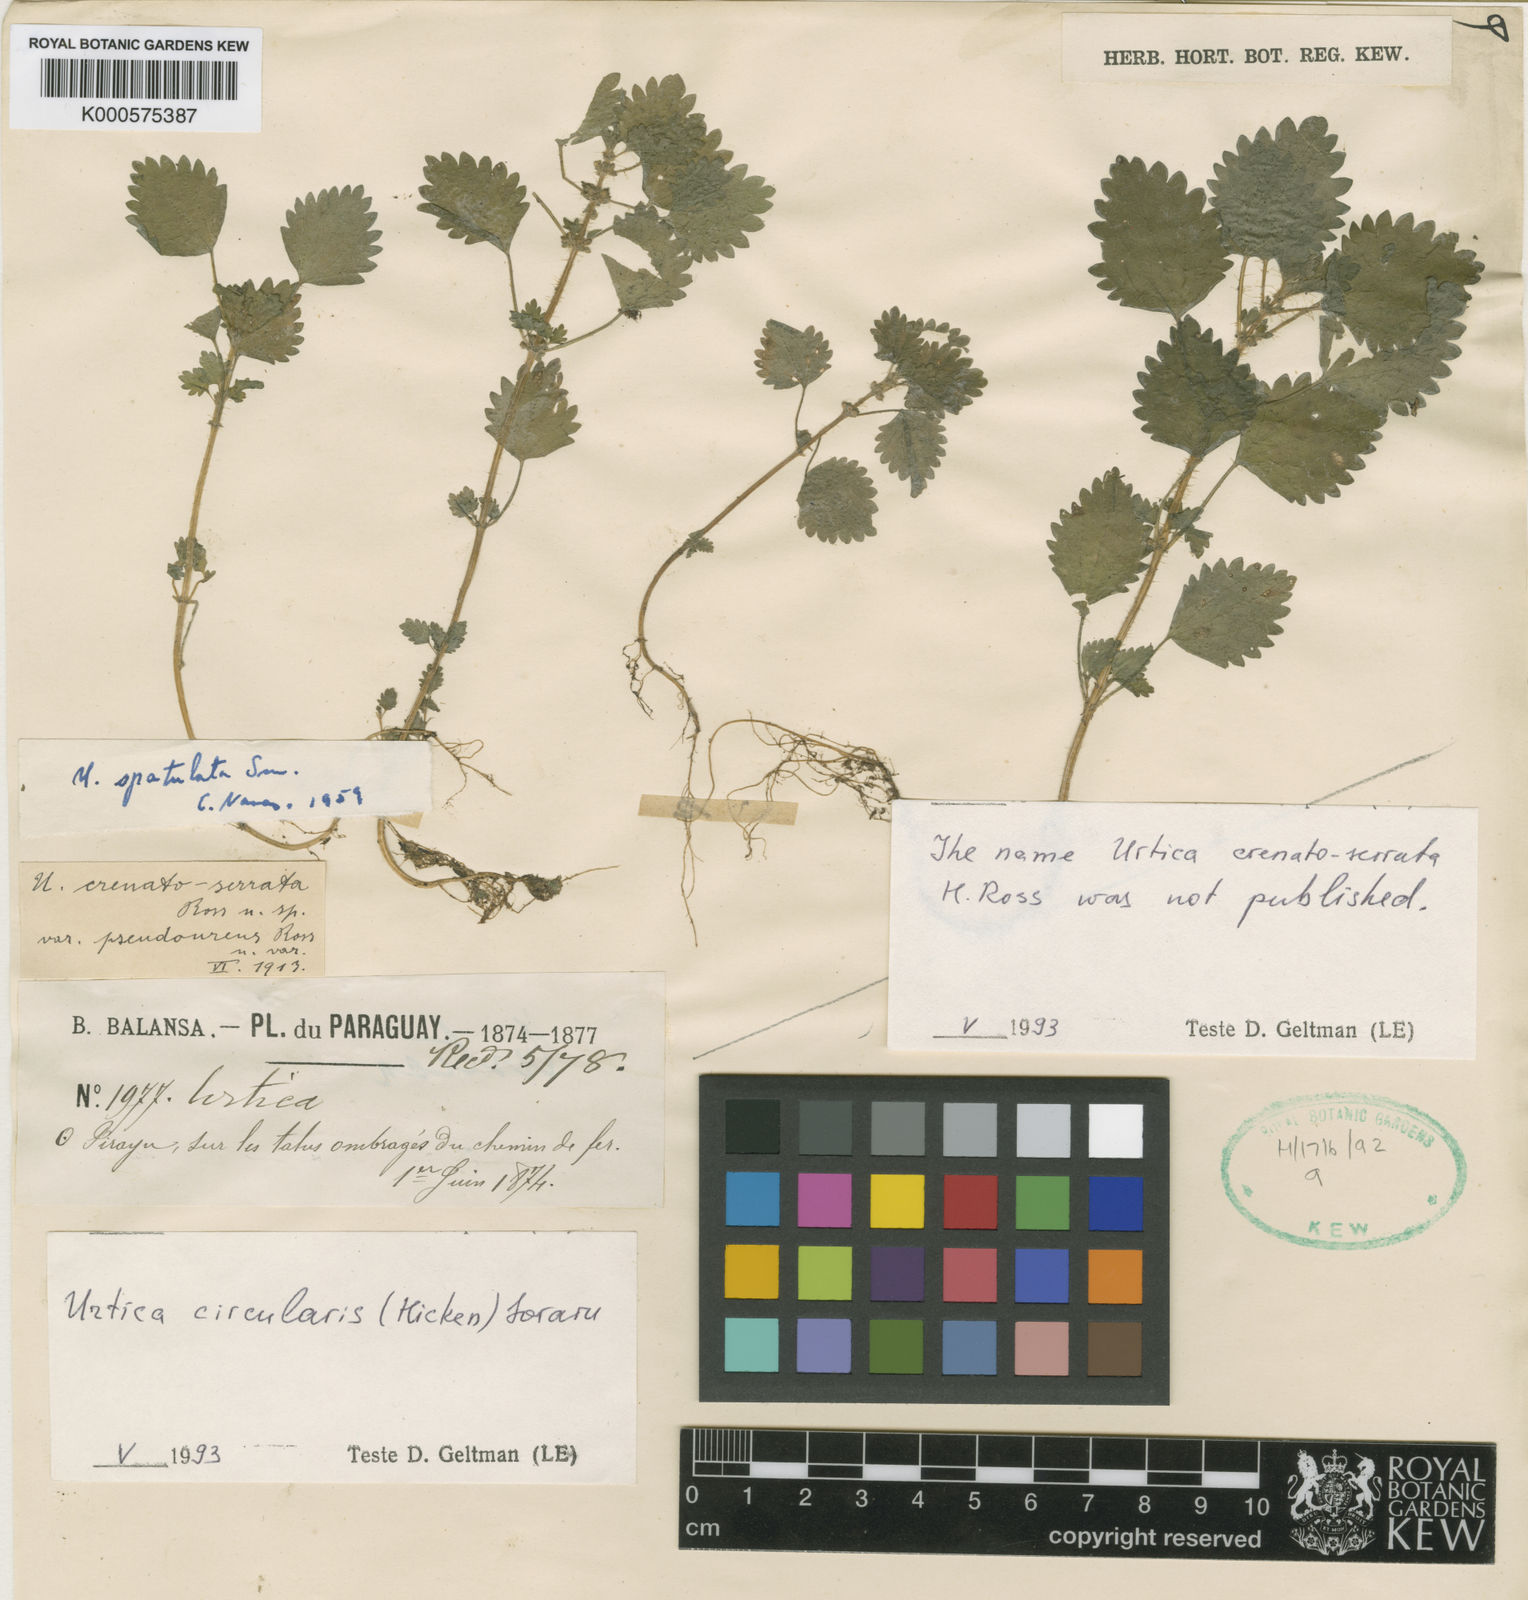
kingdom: Plantae
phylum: Tracheophyta
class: Magnoliopsida
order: Rosales
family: Urticaceae
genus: Urtica
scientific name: Urtica circularis
